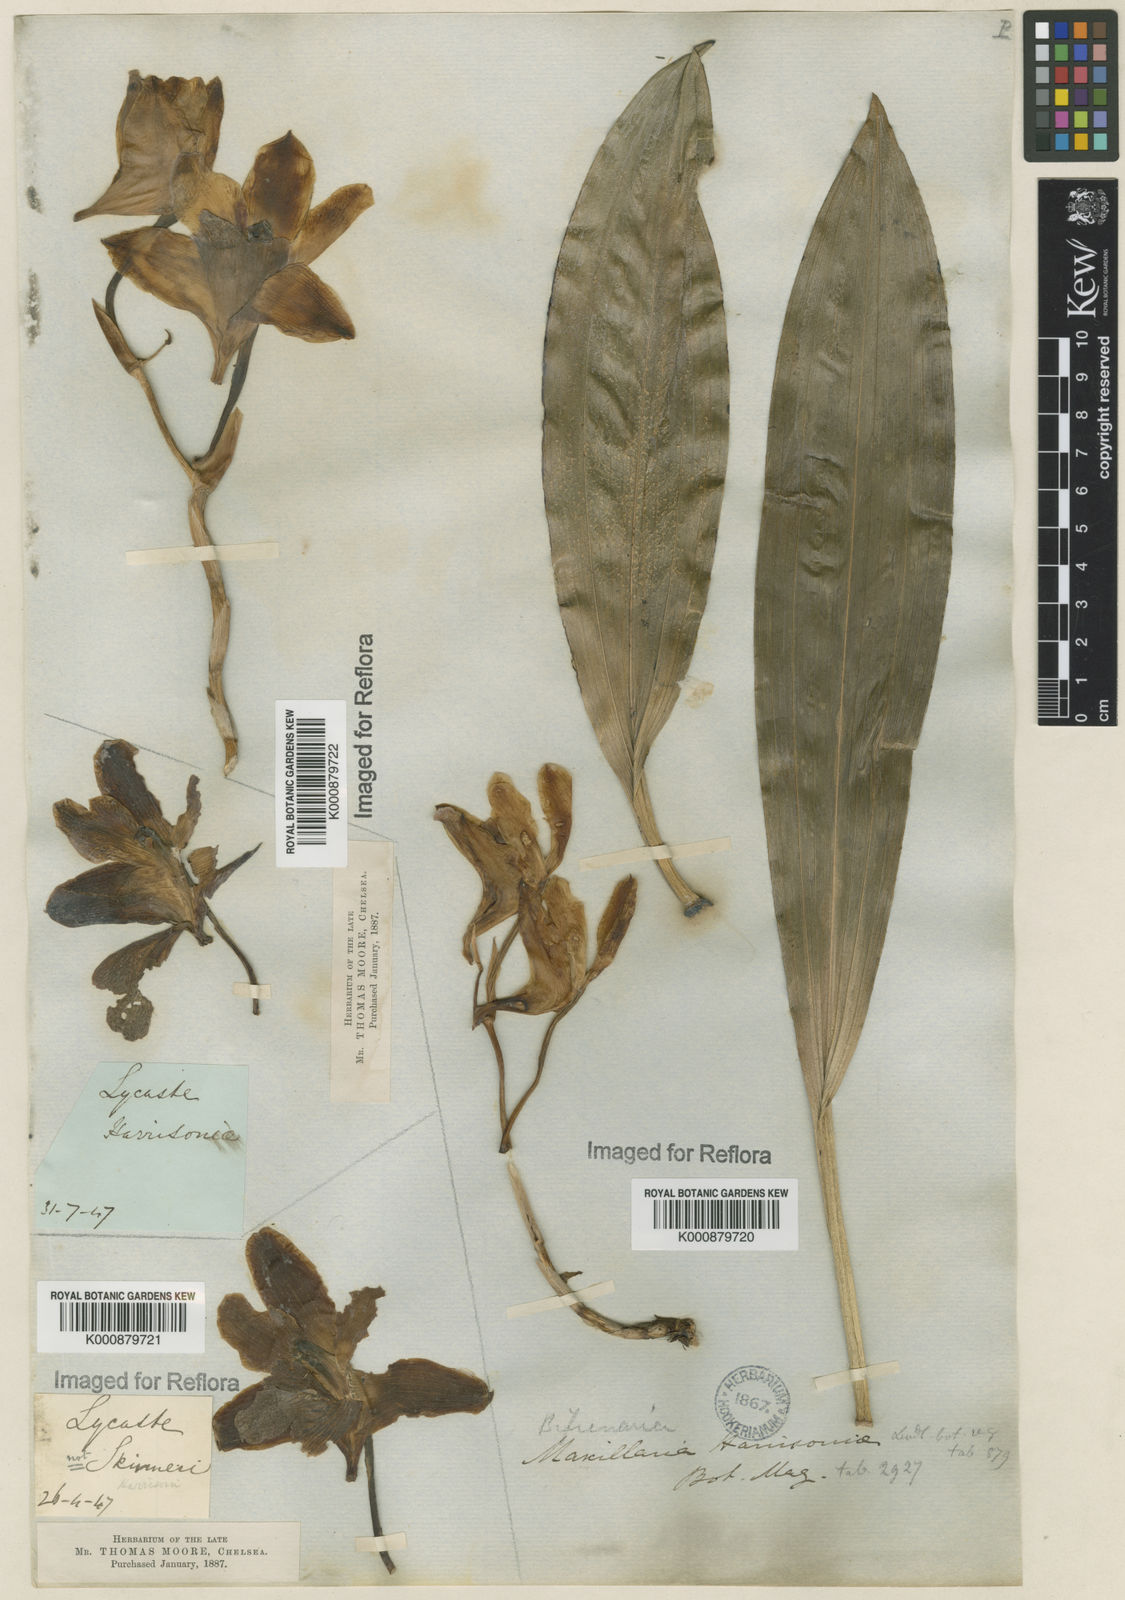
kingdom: Plantae
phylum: Tracheophyta
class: Liliopsida
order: Asparagales
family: Orchidaceae
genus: Bifrenaria
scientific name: Bifrenaria harrisoniae
